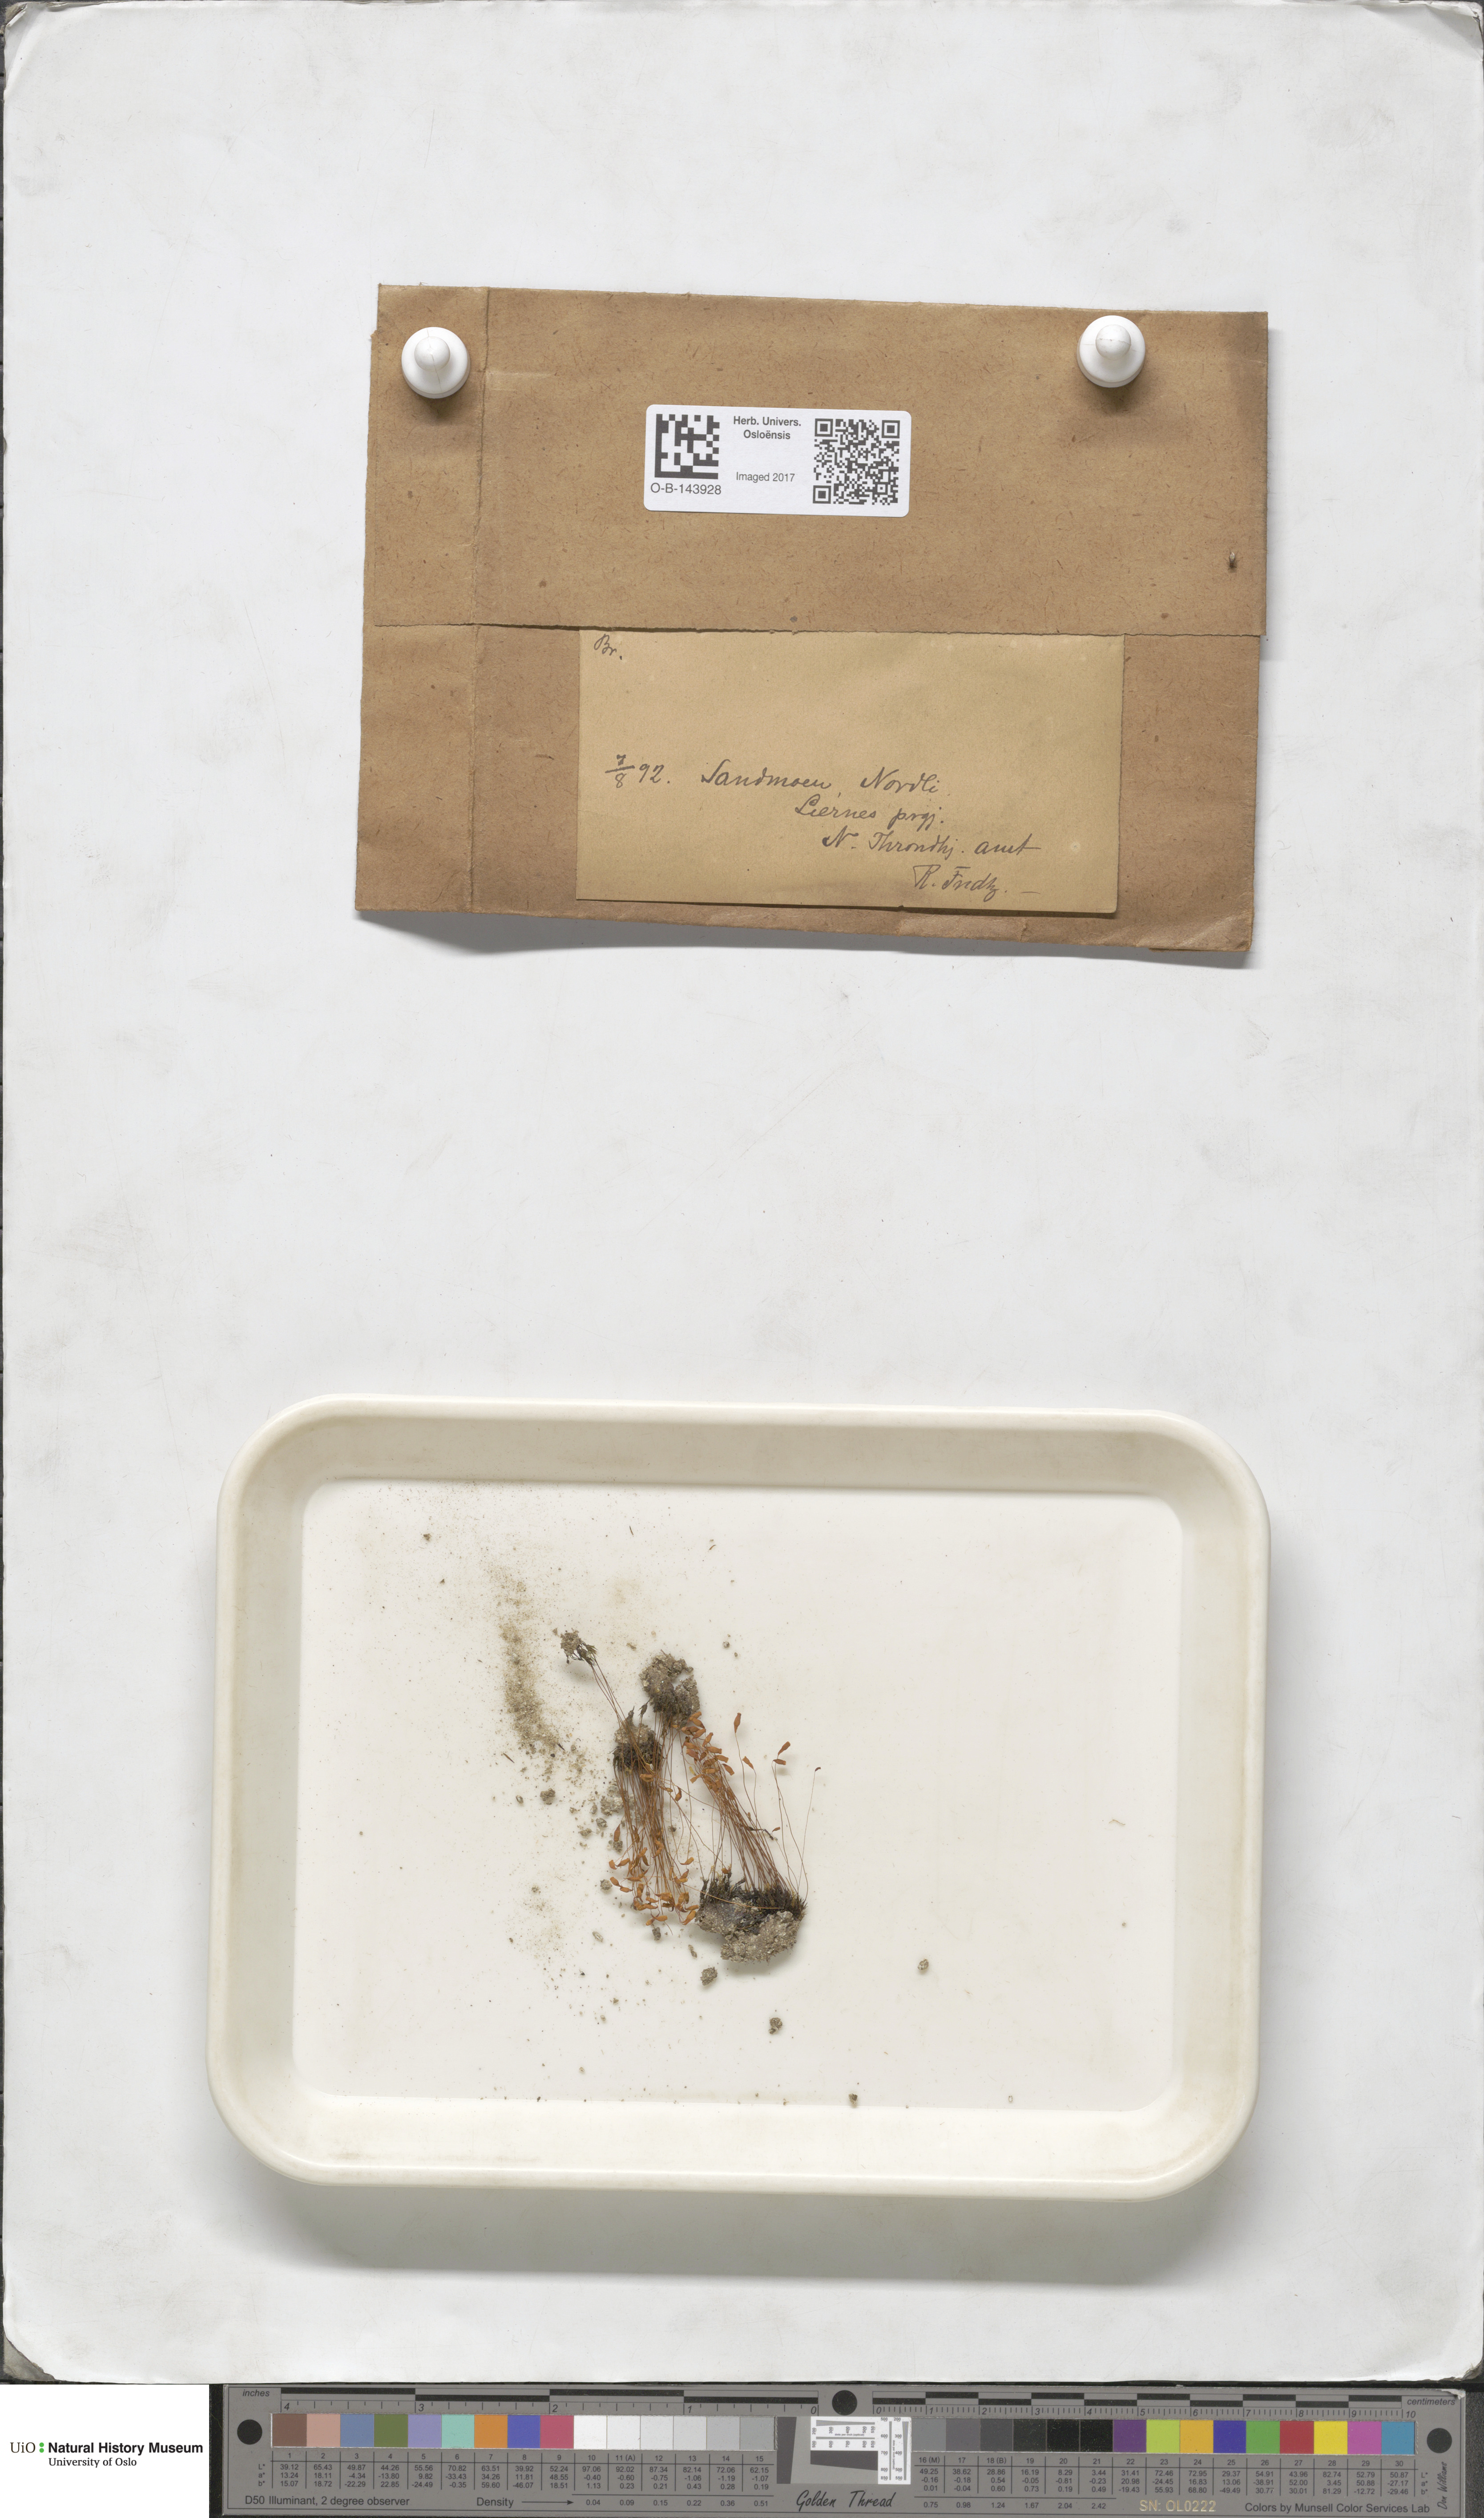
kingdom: Plantae
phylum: Bryophyta
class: Bryopsida
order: Bryales
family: Bryaceae
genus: Bryum
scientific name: Bryum
